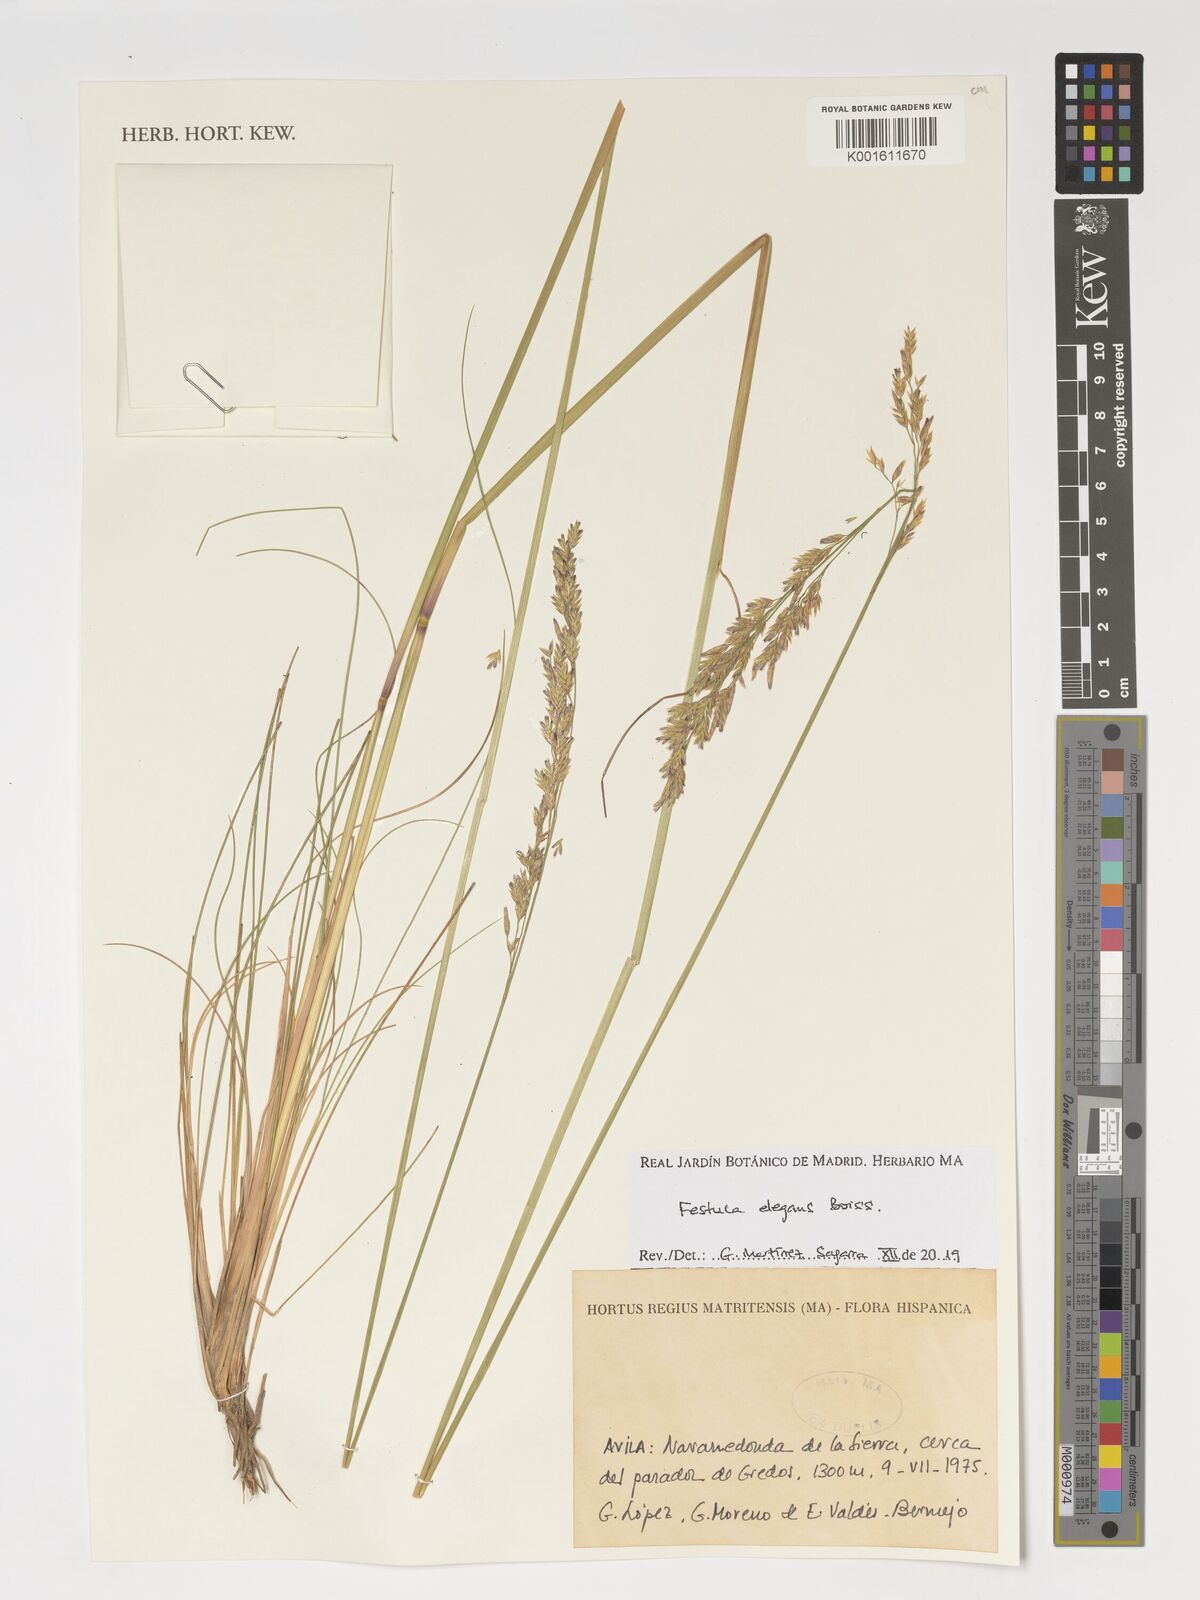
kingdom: Plantae
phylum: Tracheophyta
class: Liliopsida
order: Poales
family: Poaceae
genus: Festuca
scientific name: Festuca elegans
